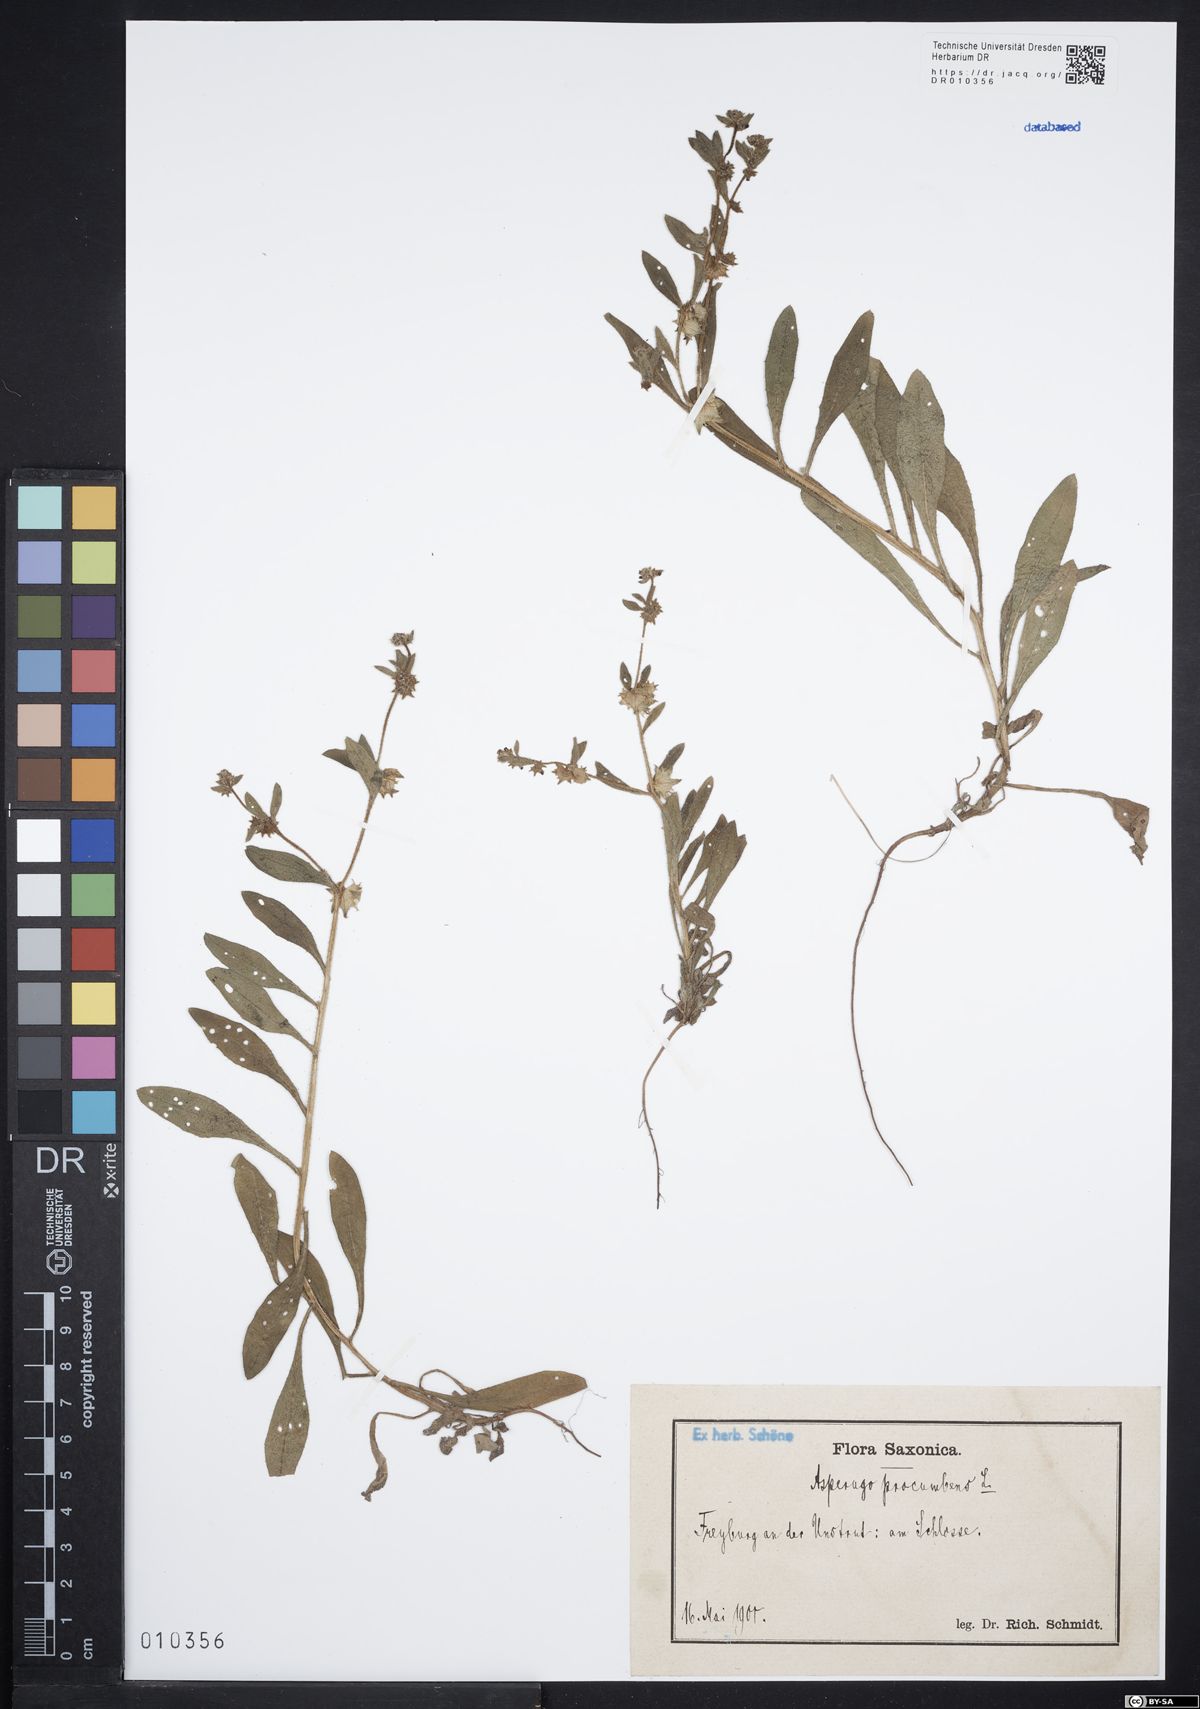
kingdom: Plantae
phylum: Tracheophyta
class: Magnoliopsida
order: Boraginales
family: Boraginaceae
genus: Asperugo
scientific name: Asperugo procumbens
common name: Madwort
